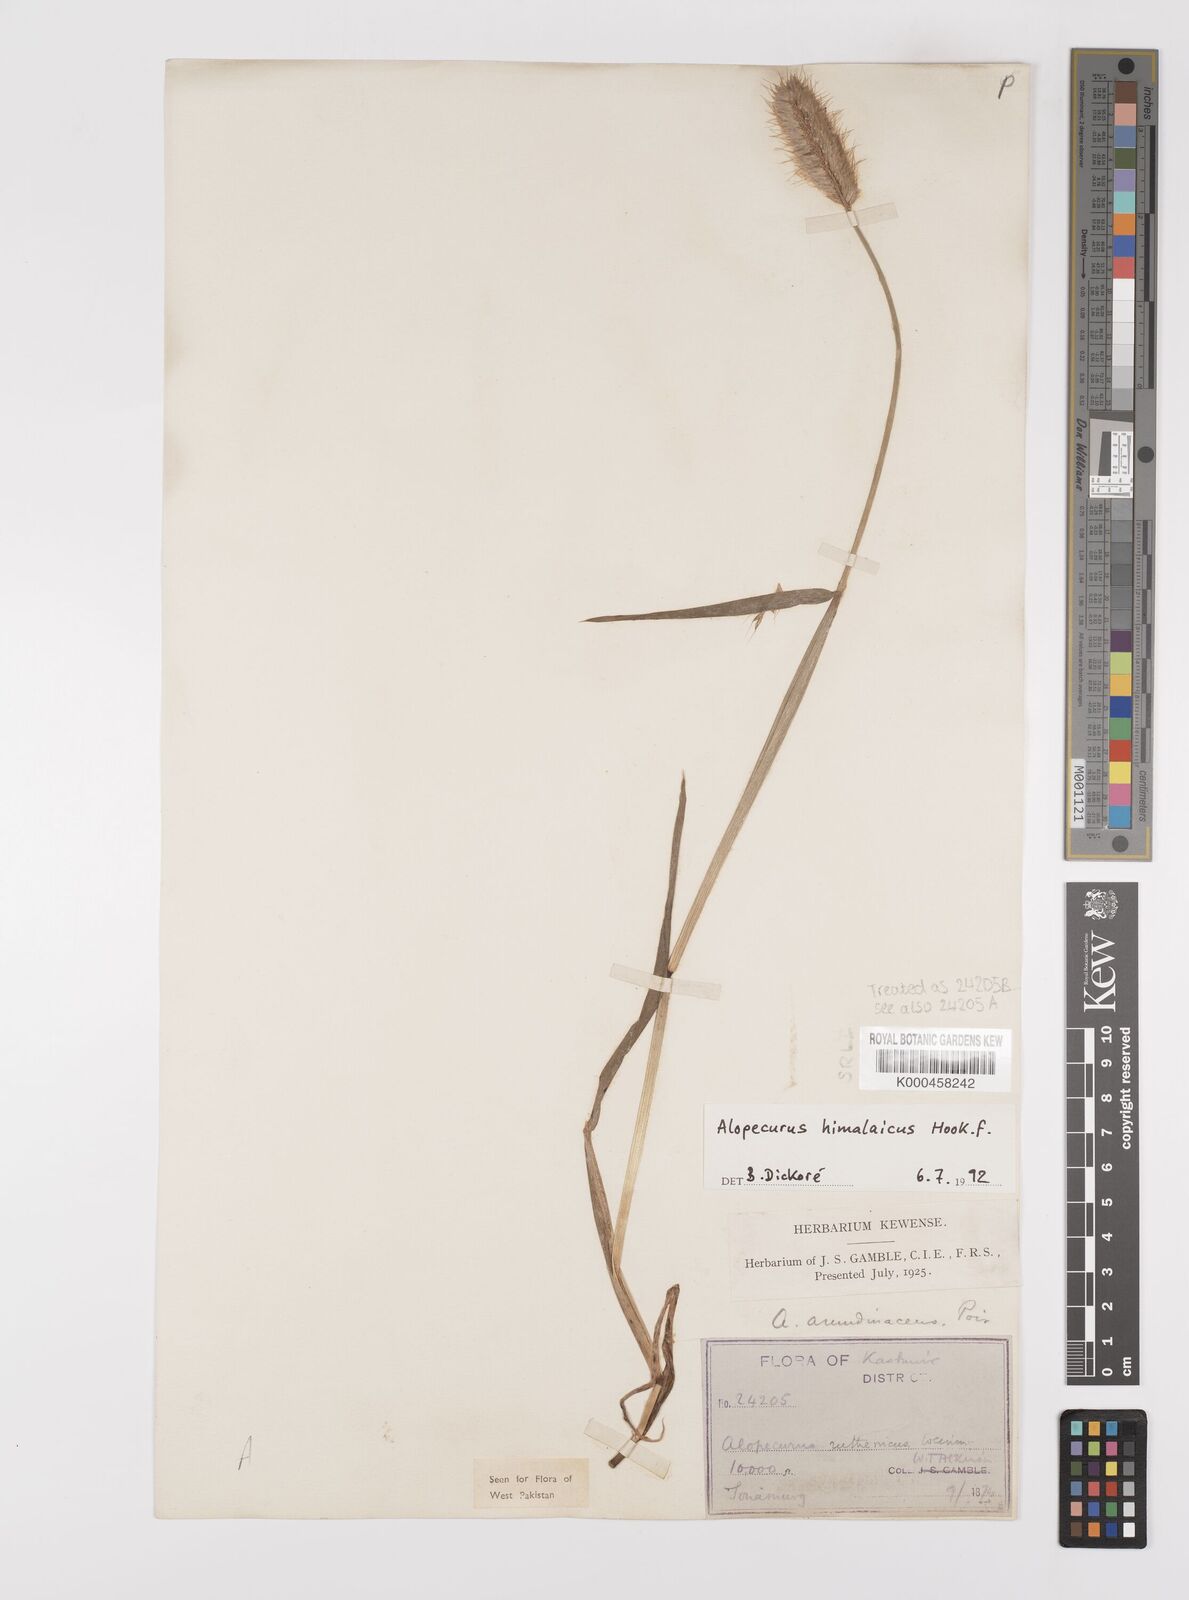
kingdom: Plantae
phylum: Tracheophyta
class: Liliopsida
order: Poales
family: Poaceae
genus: Alopecurus
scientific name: Alopecurus himalaicus
